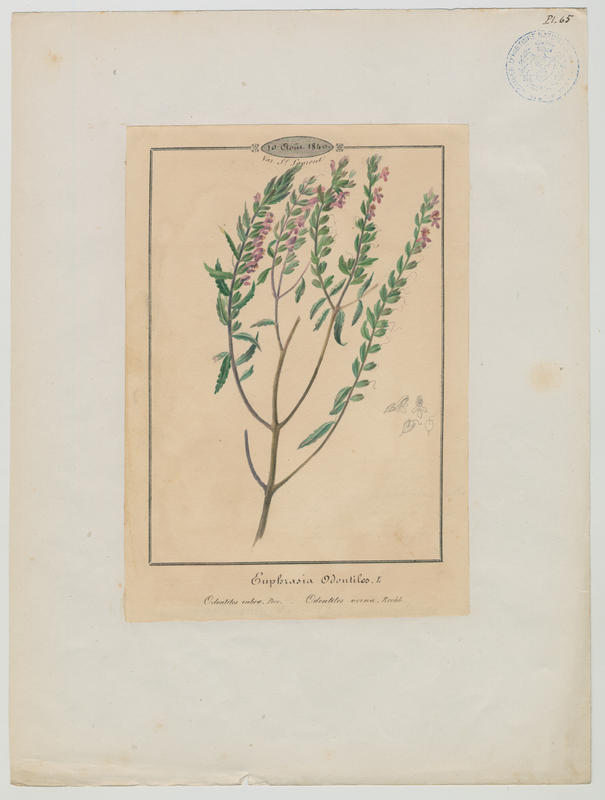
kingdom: Plantae
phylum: Tracheophyta
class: Magnoliopsida
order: Lamiales
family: Orobanchaceae
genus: Odontites
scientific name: Odontites vernus
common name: Red bartsia
